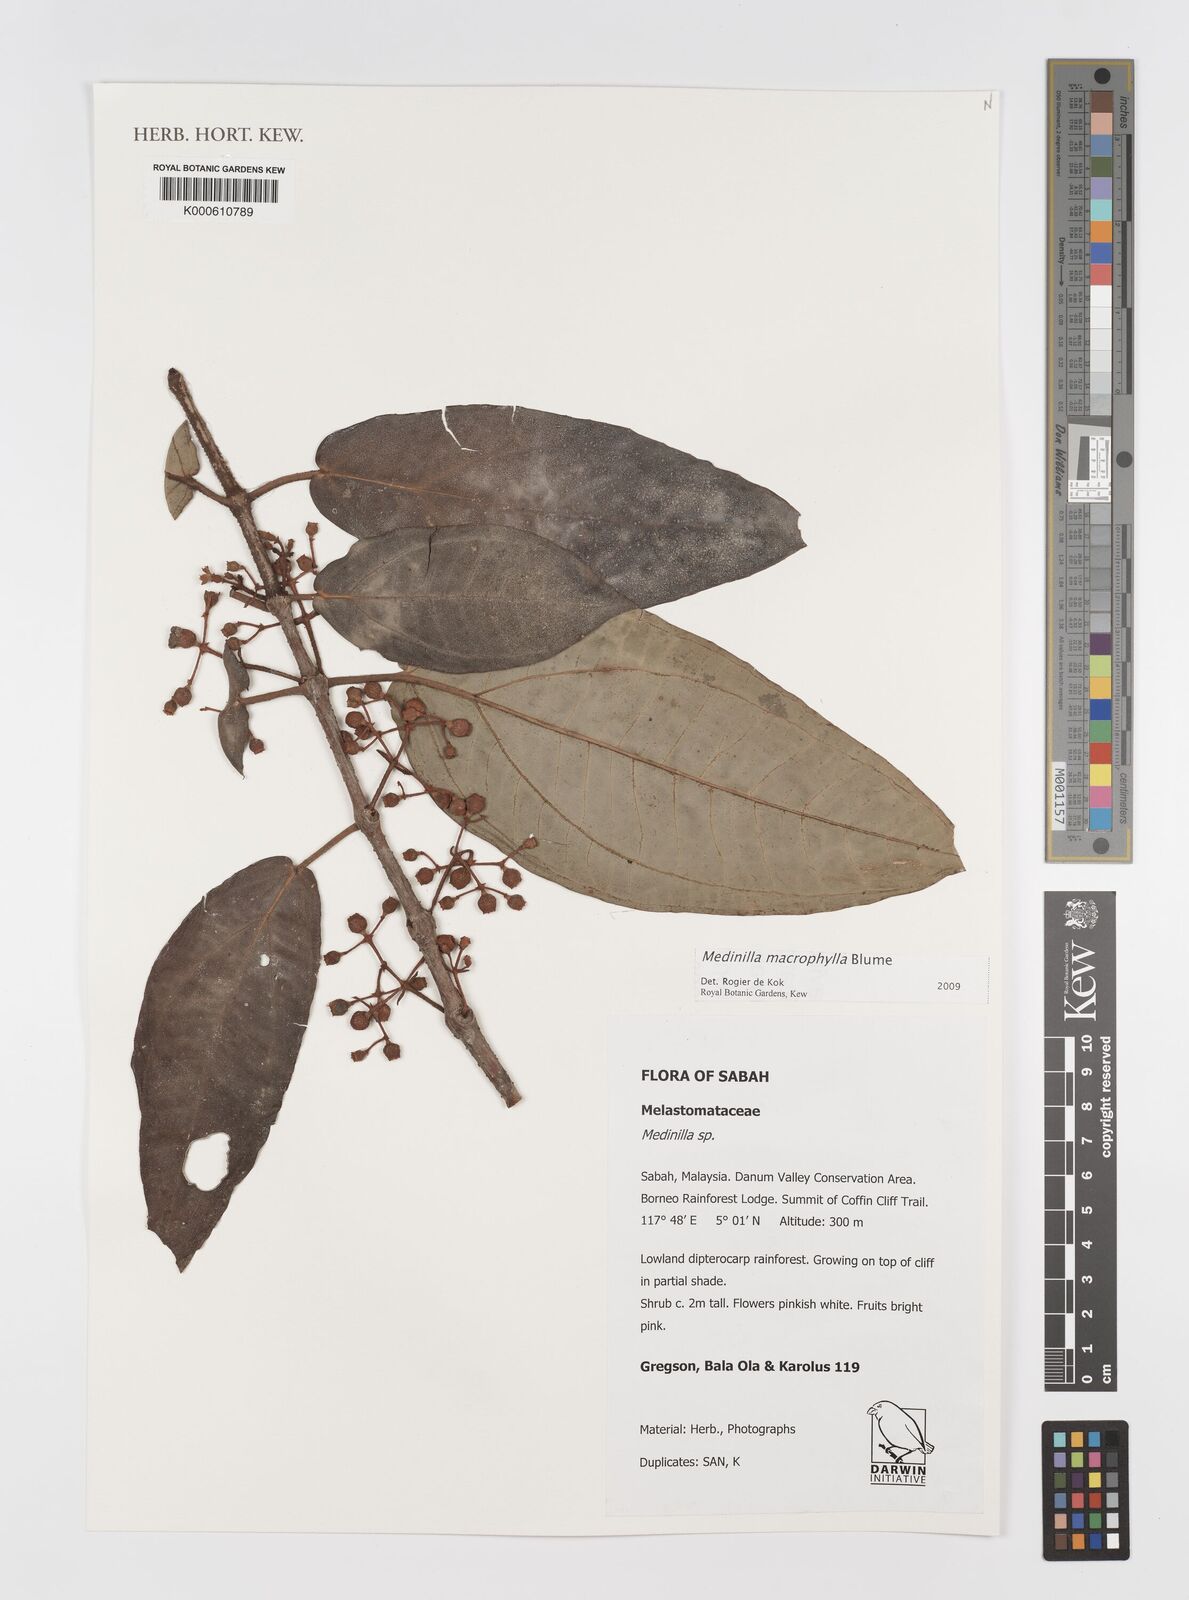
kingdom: Plantae
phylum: Tracheophyta
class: Magnoliopsida
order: Myrtales
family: Melastomataceae
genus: Medinilla
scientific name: Medinilla macrophylla
